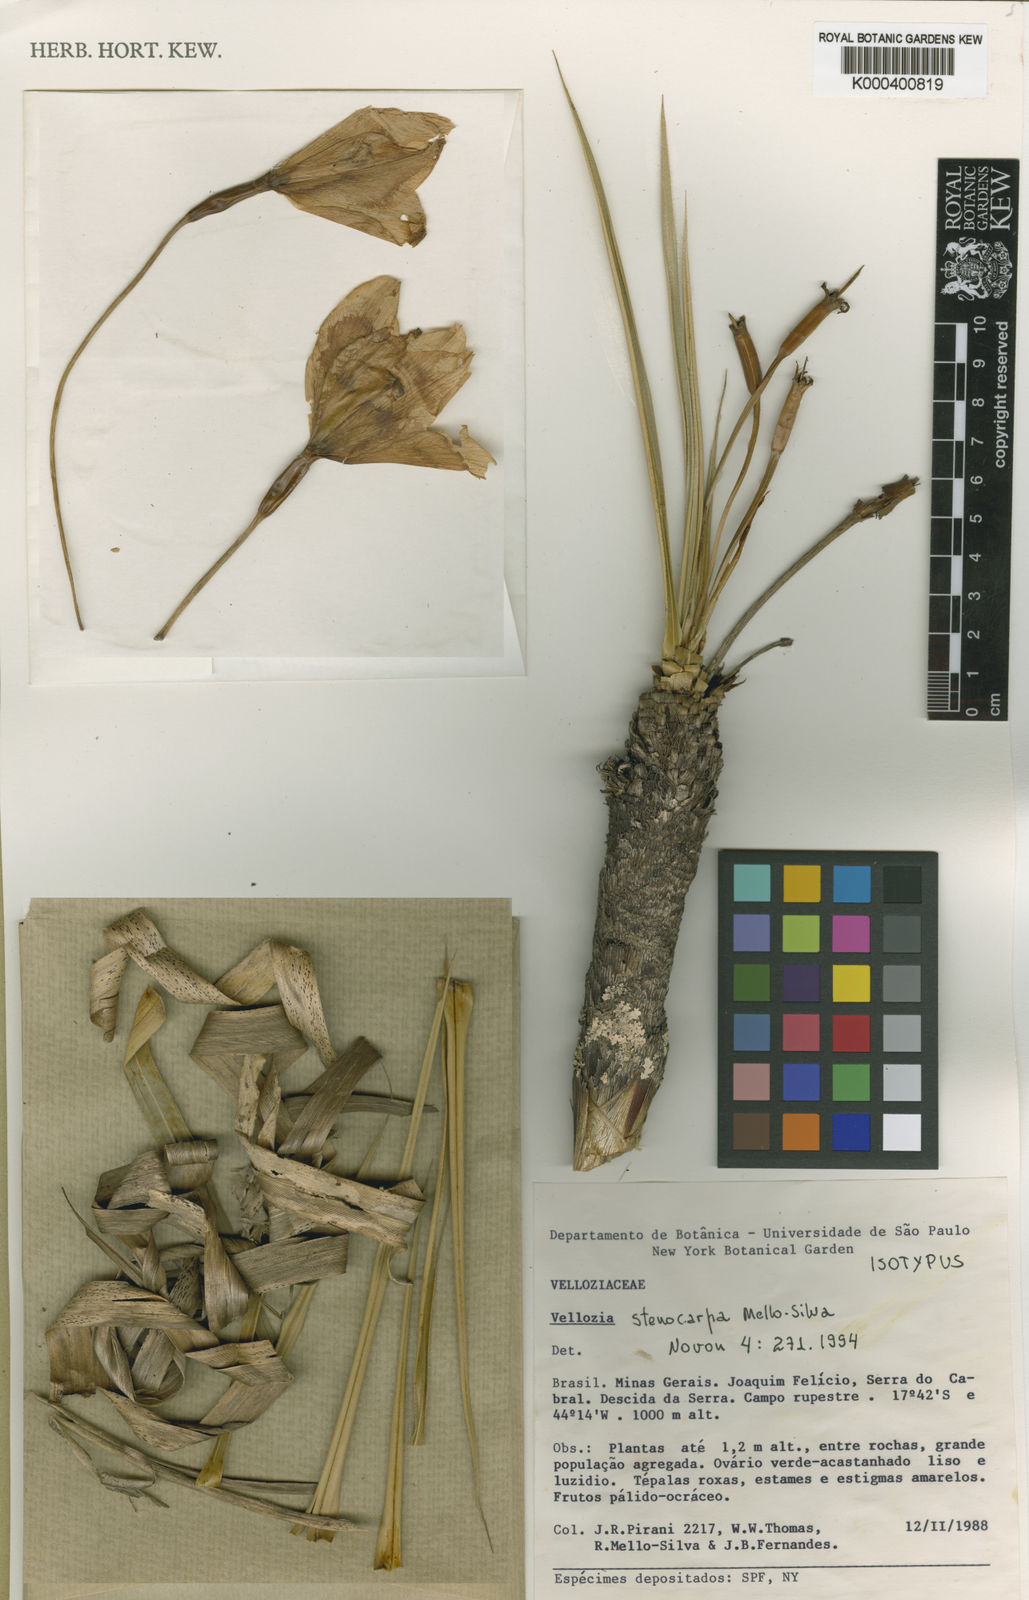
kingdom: Plantae
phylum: Tracheophyta
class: Liliopsida
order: Pandanales
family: Velloziaceae
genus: Vellozia
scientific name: Vellozia stenocarpa
